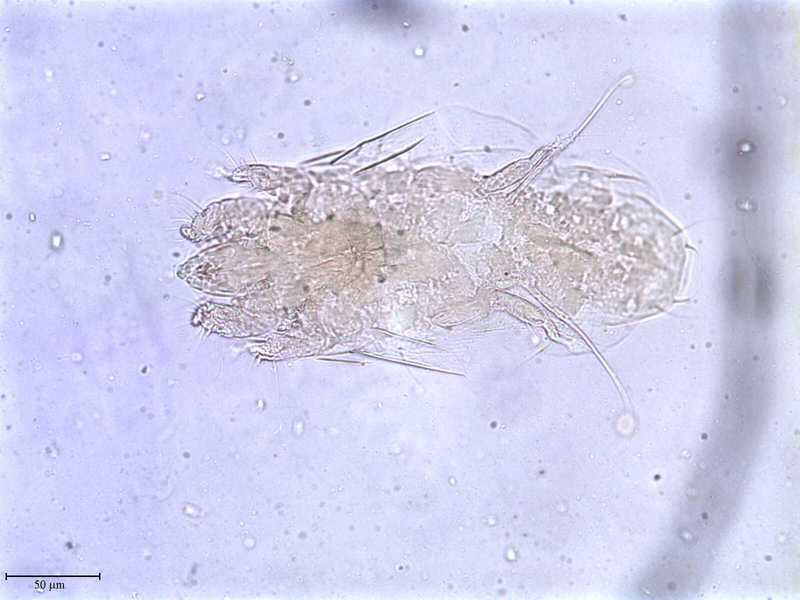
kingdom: Animalia
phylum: Arthropoda
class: Arachnida
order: Trombidiformes
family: Tarsonemidae
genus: Pseudotarsonemoides
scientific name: Pseudotarsonemoides eccoptogasteris
